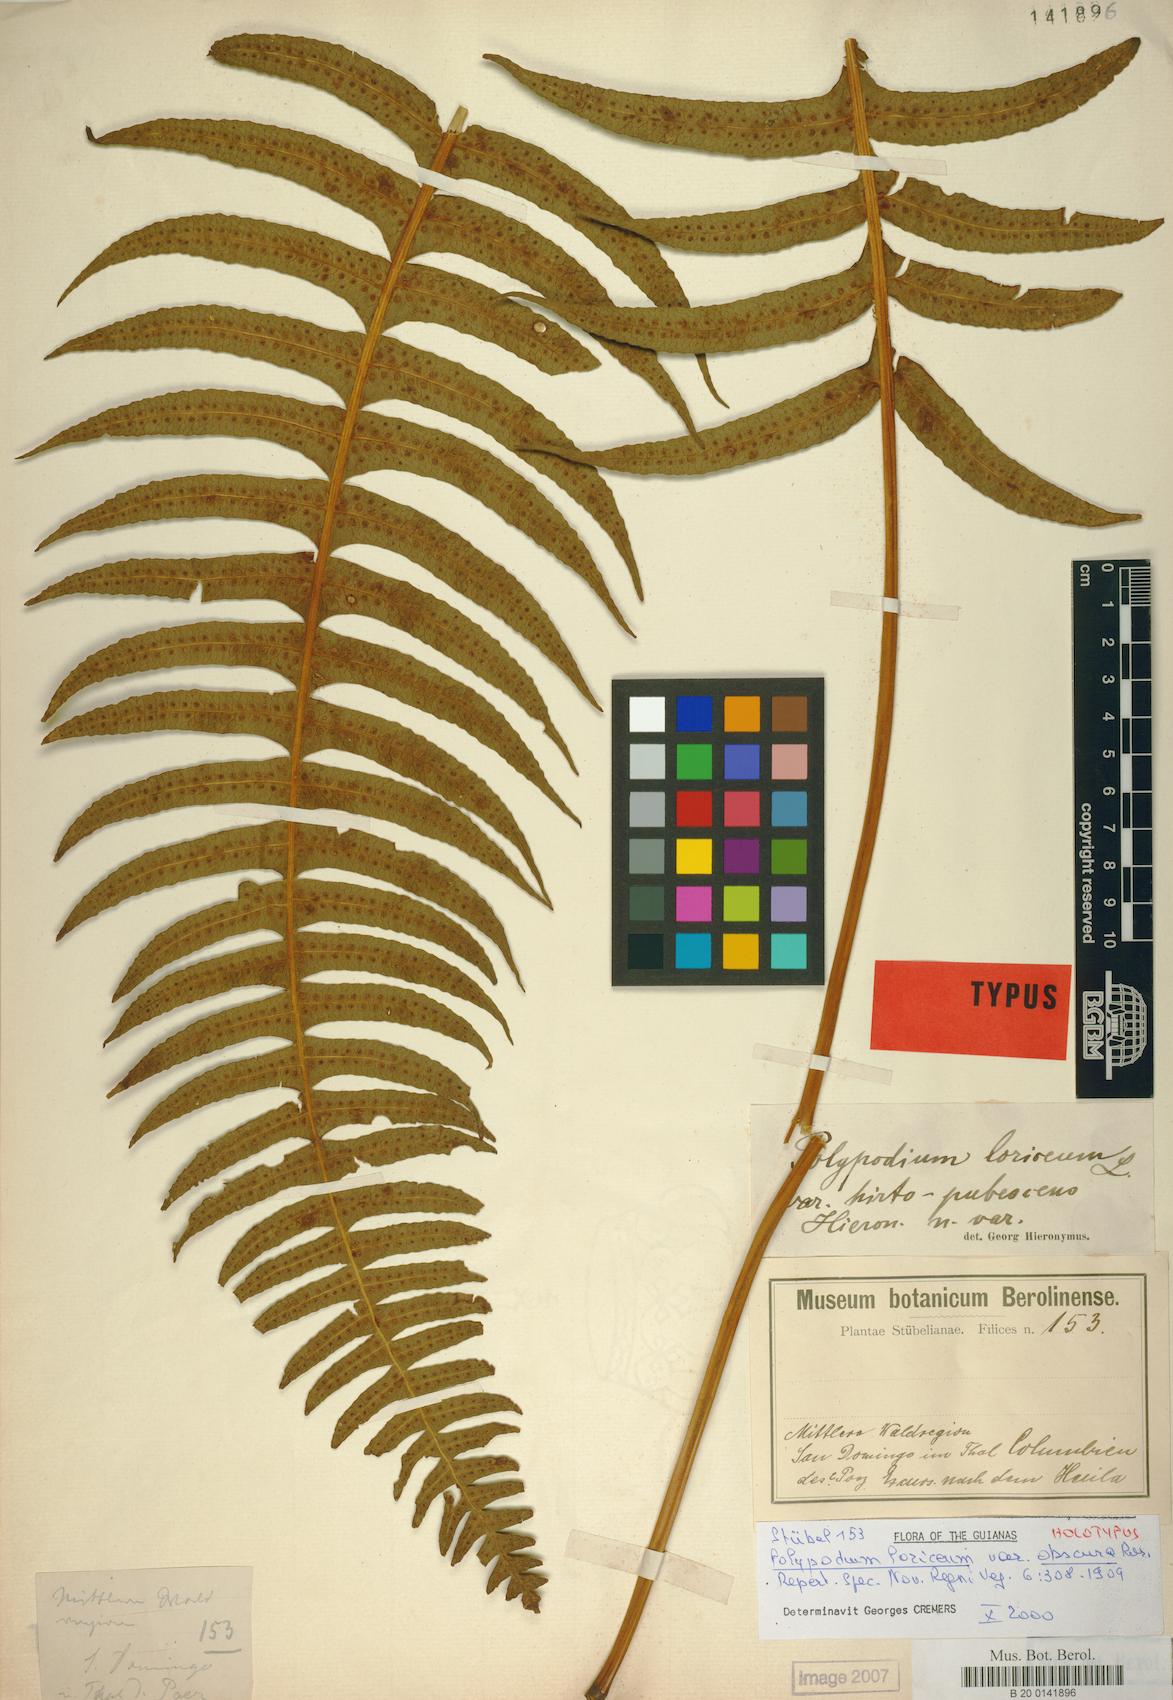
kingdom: Plantae
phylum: Tracheophyta
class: Polypodiopsida
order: Polypodiales
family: Polypodiaceae
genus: Serpocaulon
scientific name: Serpocaulon loriceum
